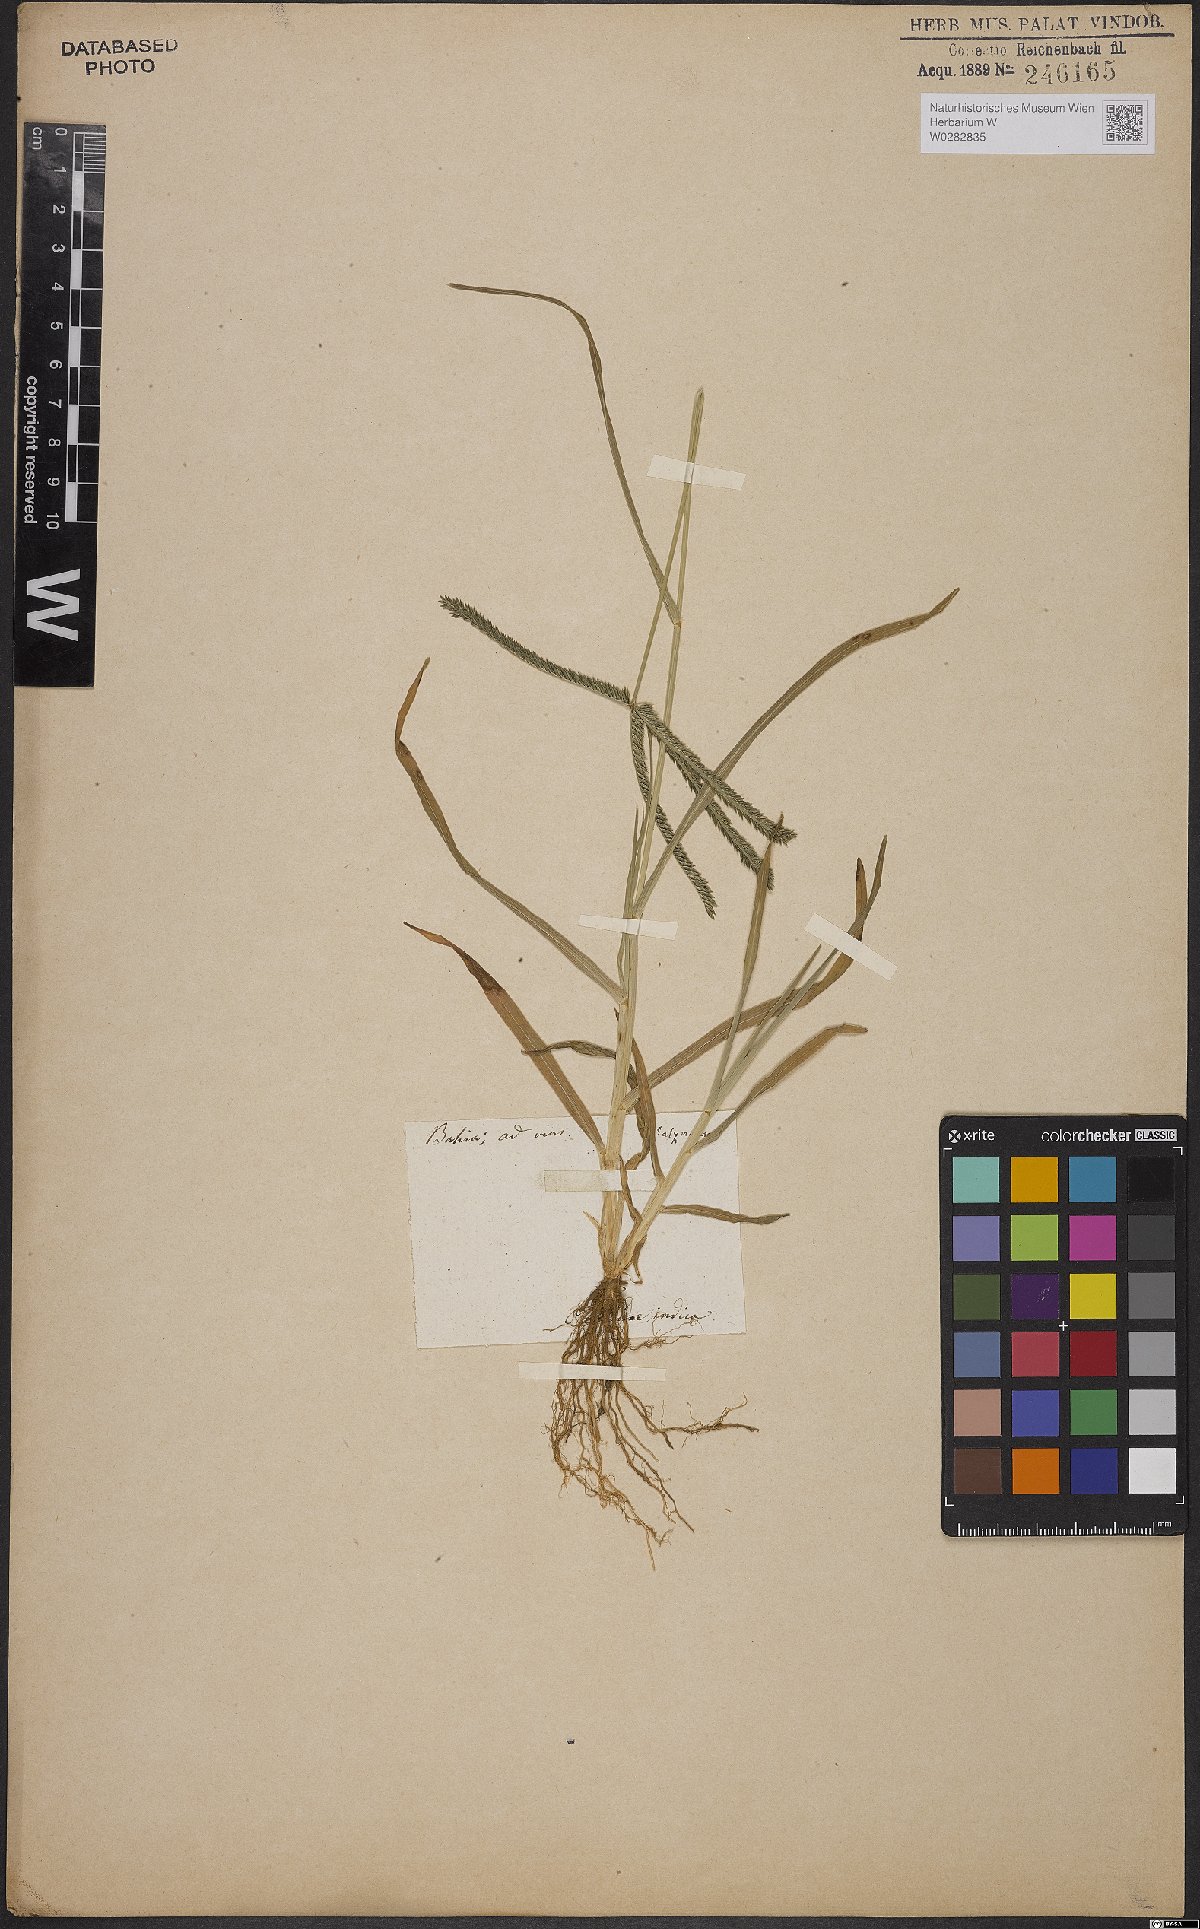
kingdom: Plantae
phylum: Tracheophyta
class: Liliopsida
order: Poales
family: Poaceae
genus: Eleusine
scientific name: Eleusine indica
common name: Yard-grass
